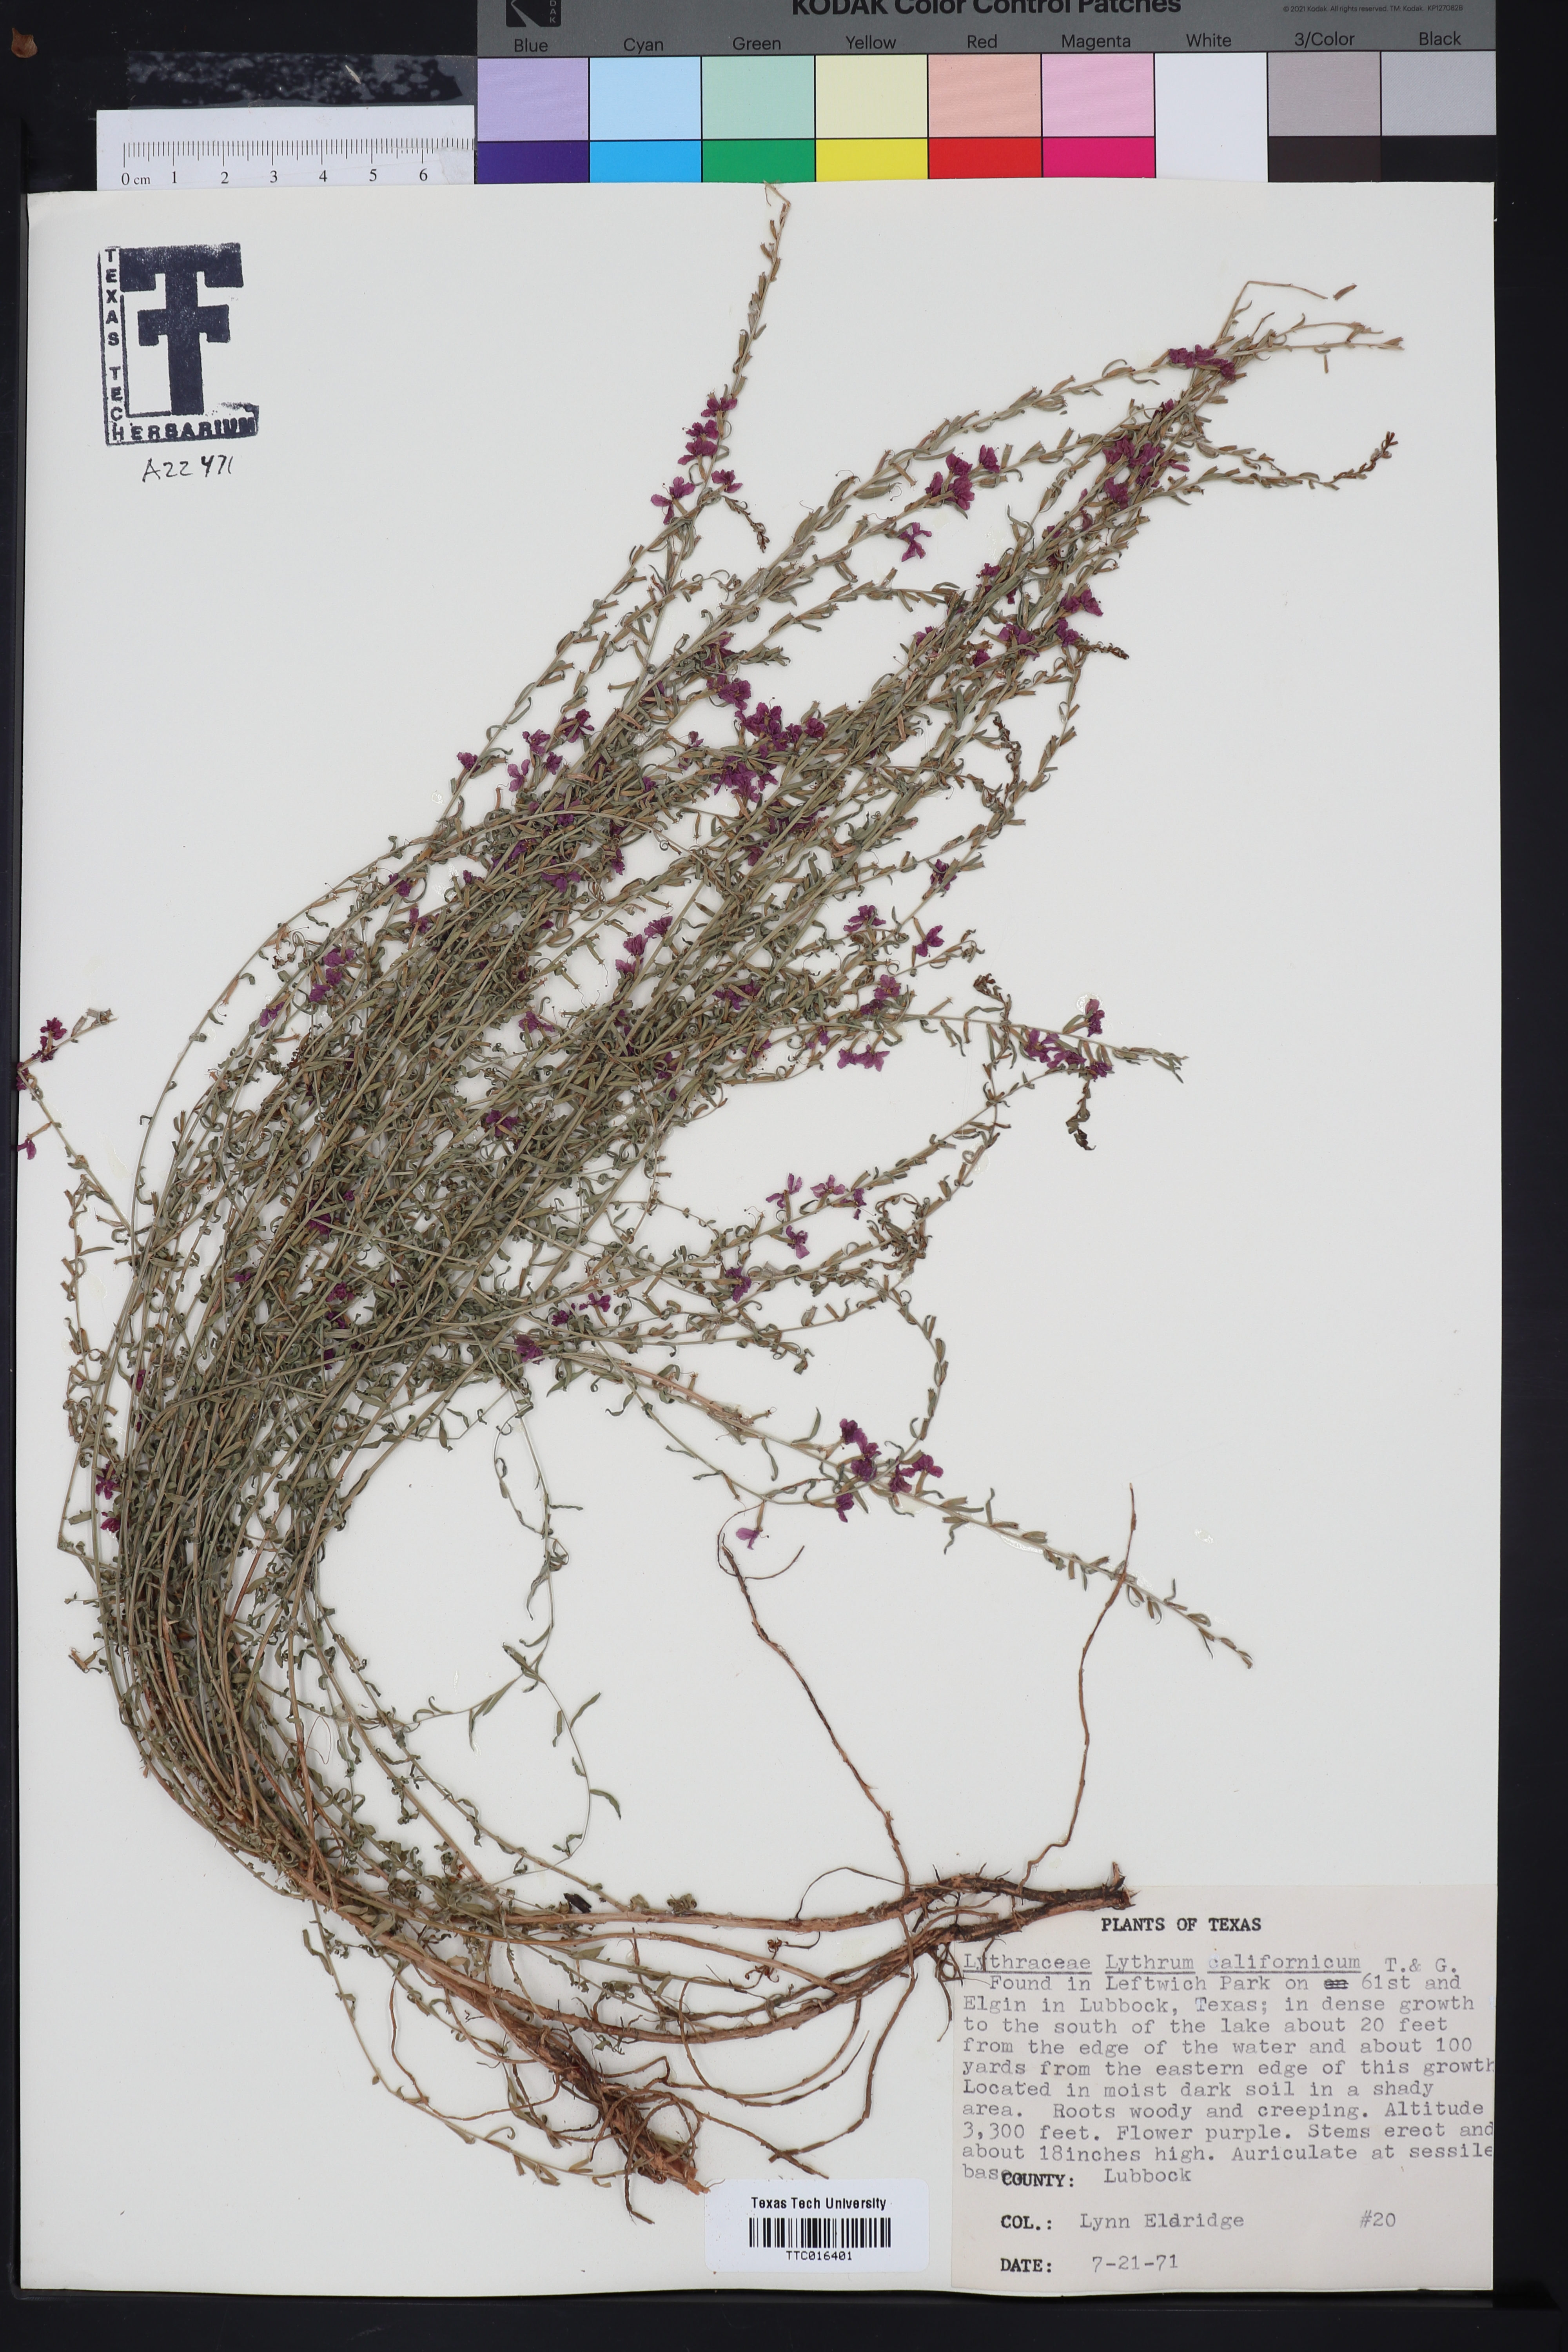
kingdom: Plantae
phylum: Tracheophyta
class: Magnoliopsida
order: Myrtales
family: Lythraceae
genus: Lythrum
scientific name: Lythrum californicum
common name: California loosestrife
